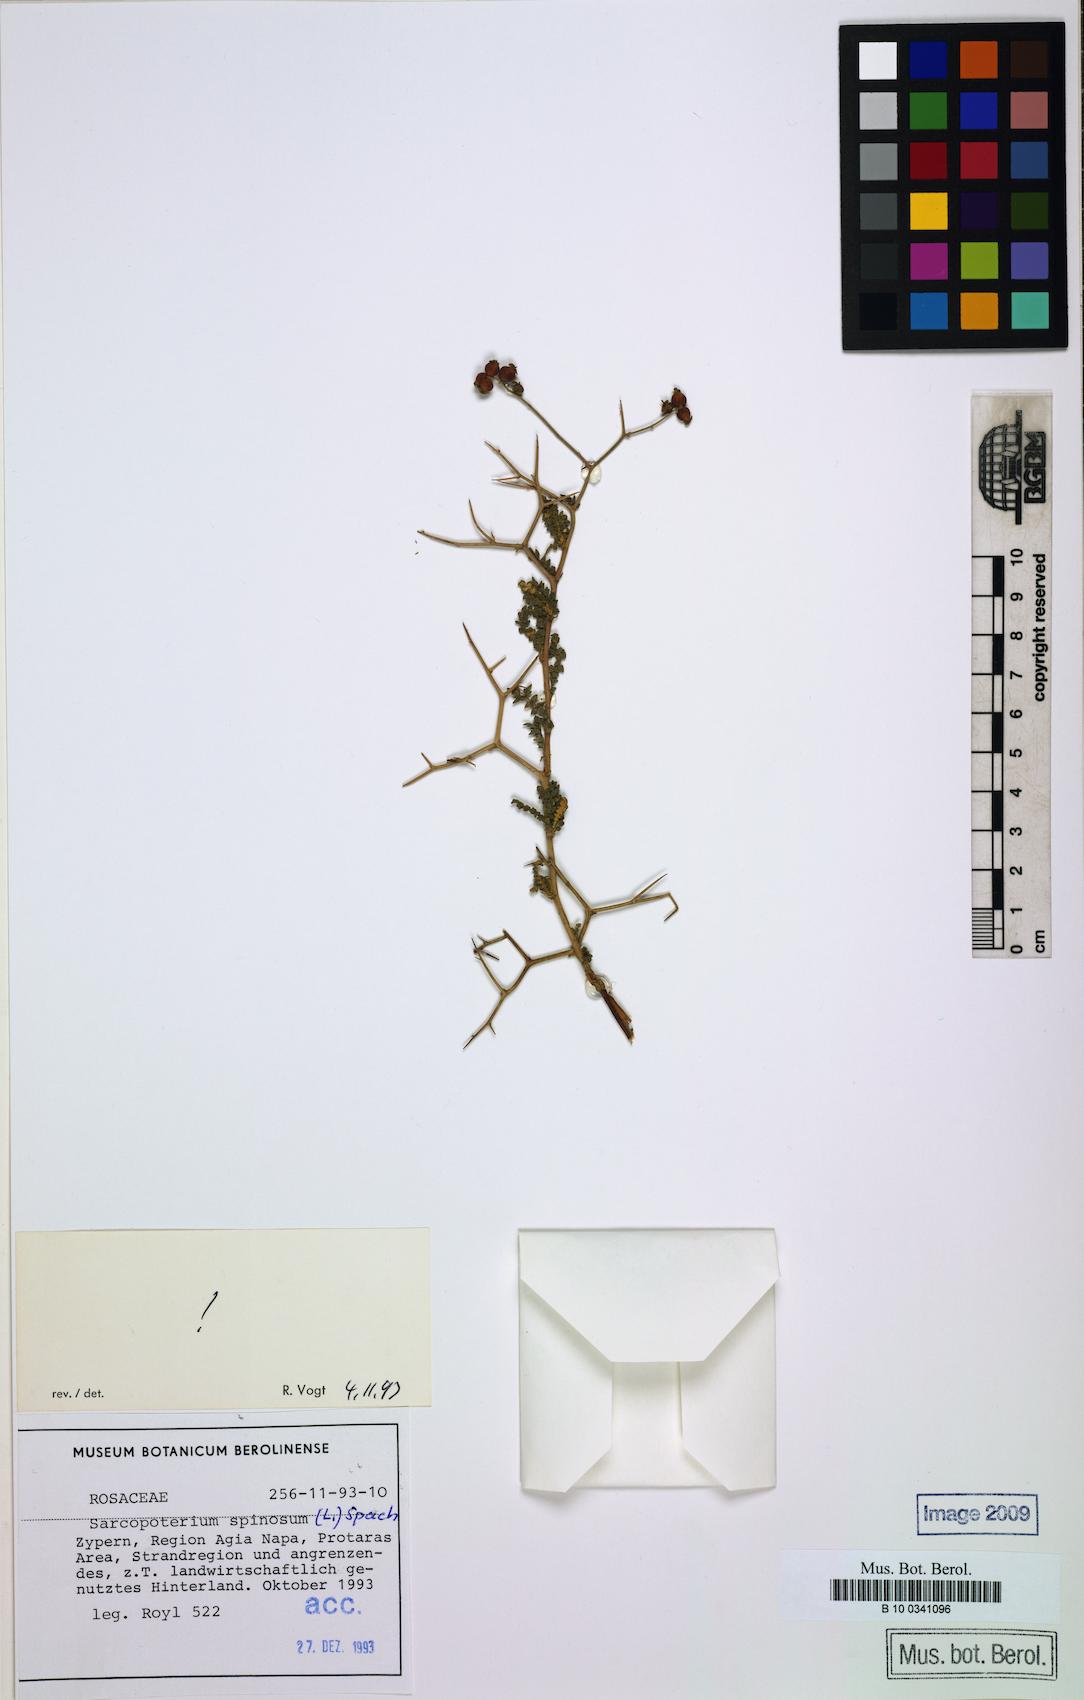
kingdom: Plantae
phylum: Tracheophyta
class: Magnoliopsida
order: Rosales
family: Rosaceae
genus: Sarcopoterium
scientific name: Sarcopoterium spinosum
